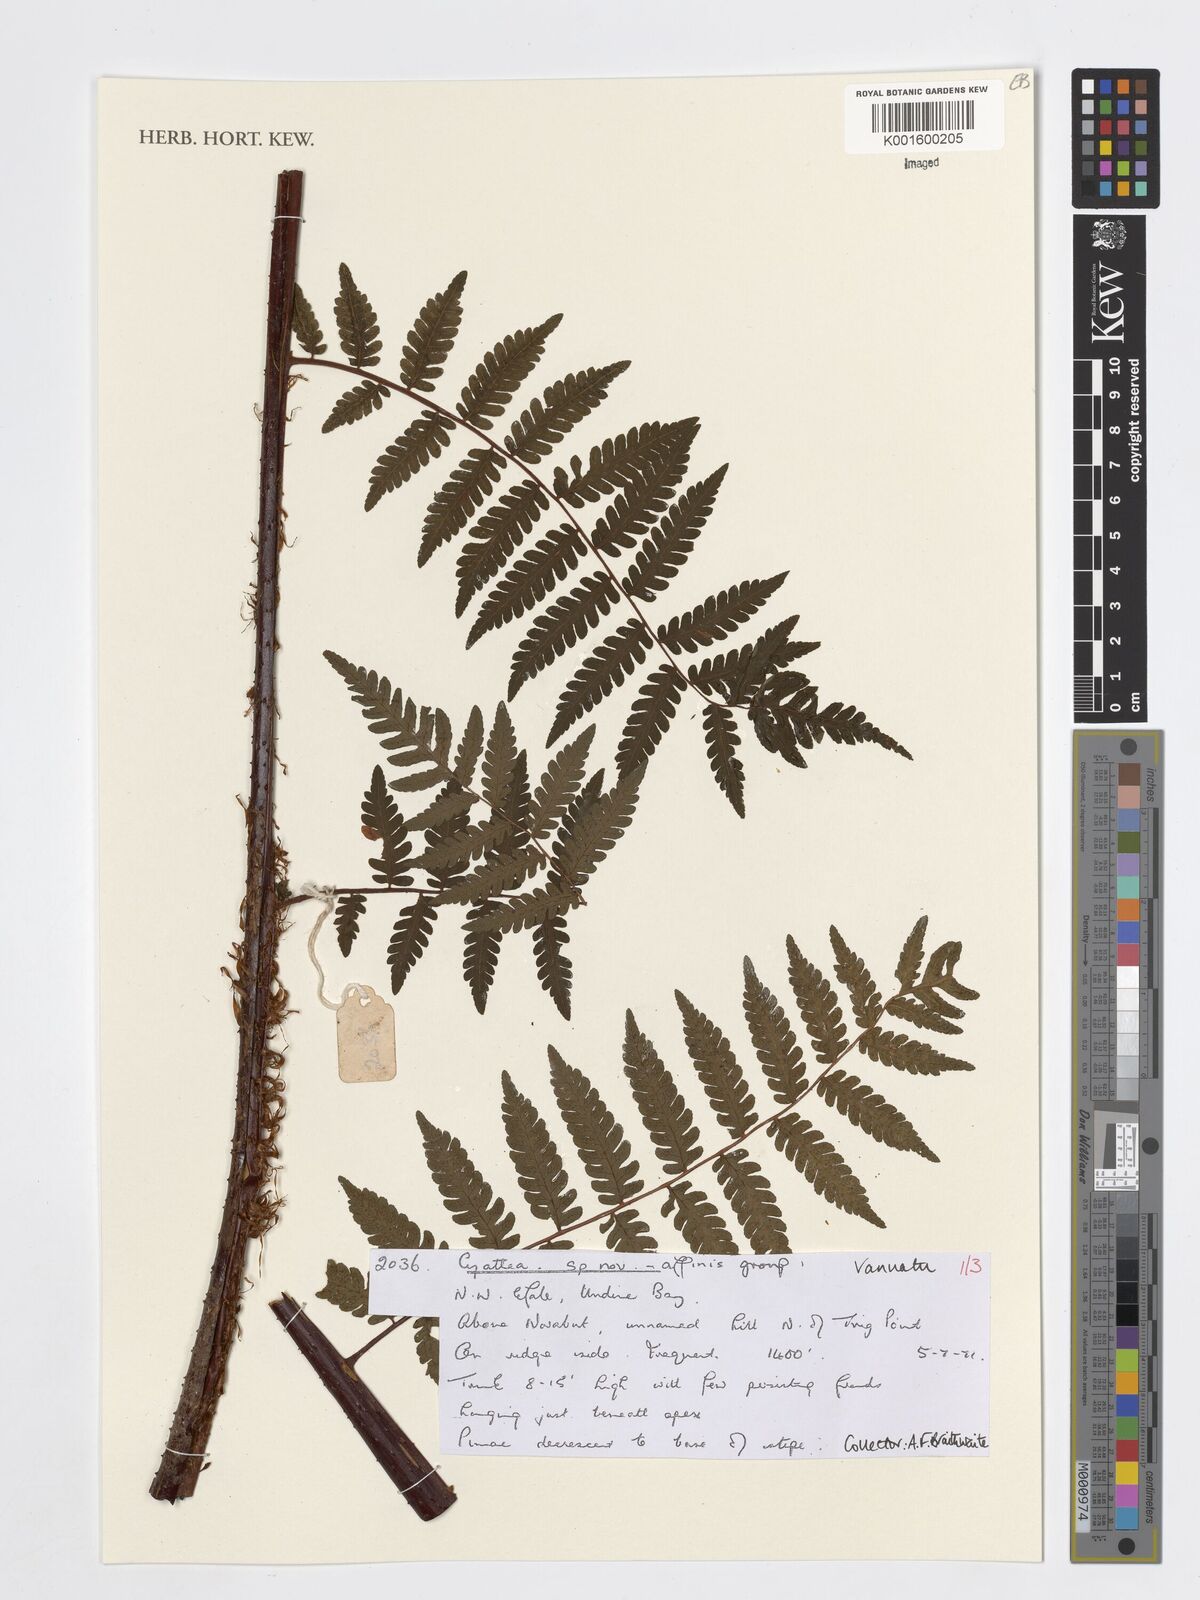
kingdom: Plantae
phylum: Tracheophyta
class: Polypodiopsida
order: Cyatheales
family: Cyatheaceae
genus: Cyathea
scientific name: Cyathea
